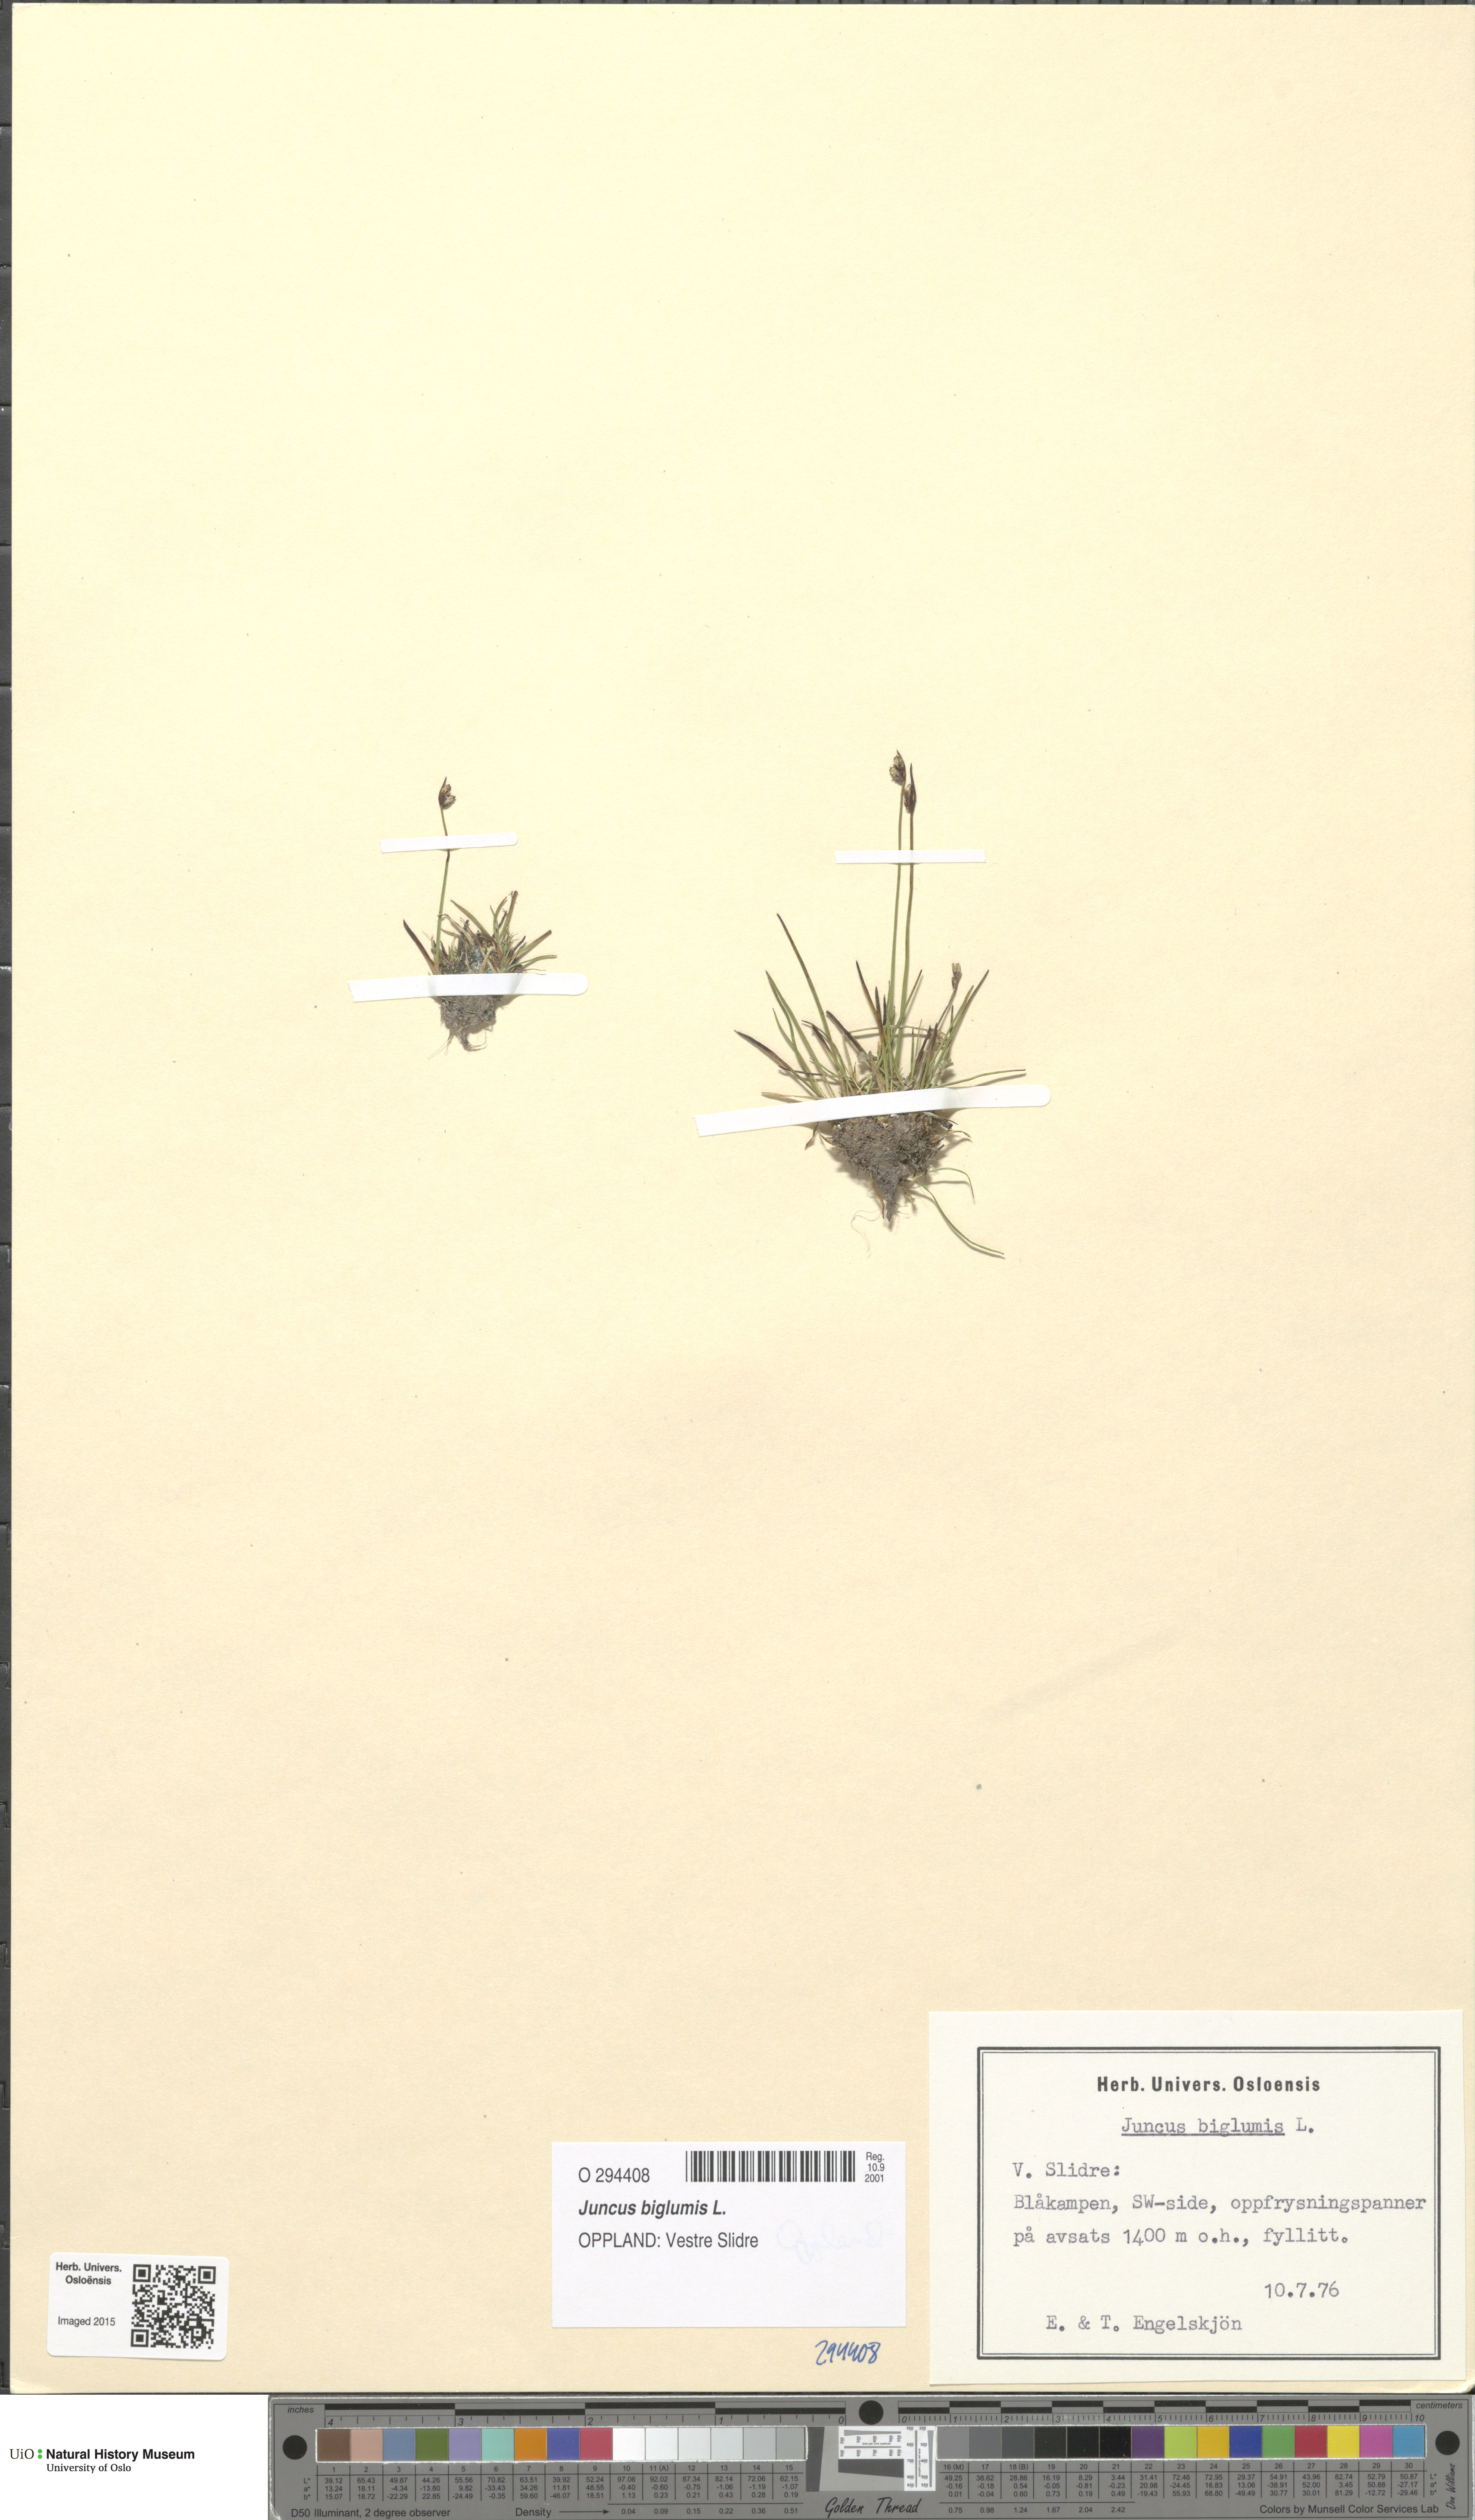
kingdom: Plantae
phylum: Tracheophyta
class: Liliopsida
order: Poales
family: Juncaceae
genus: Juncus
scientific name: Juncus biglumis
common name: Two-flowered rush
